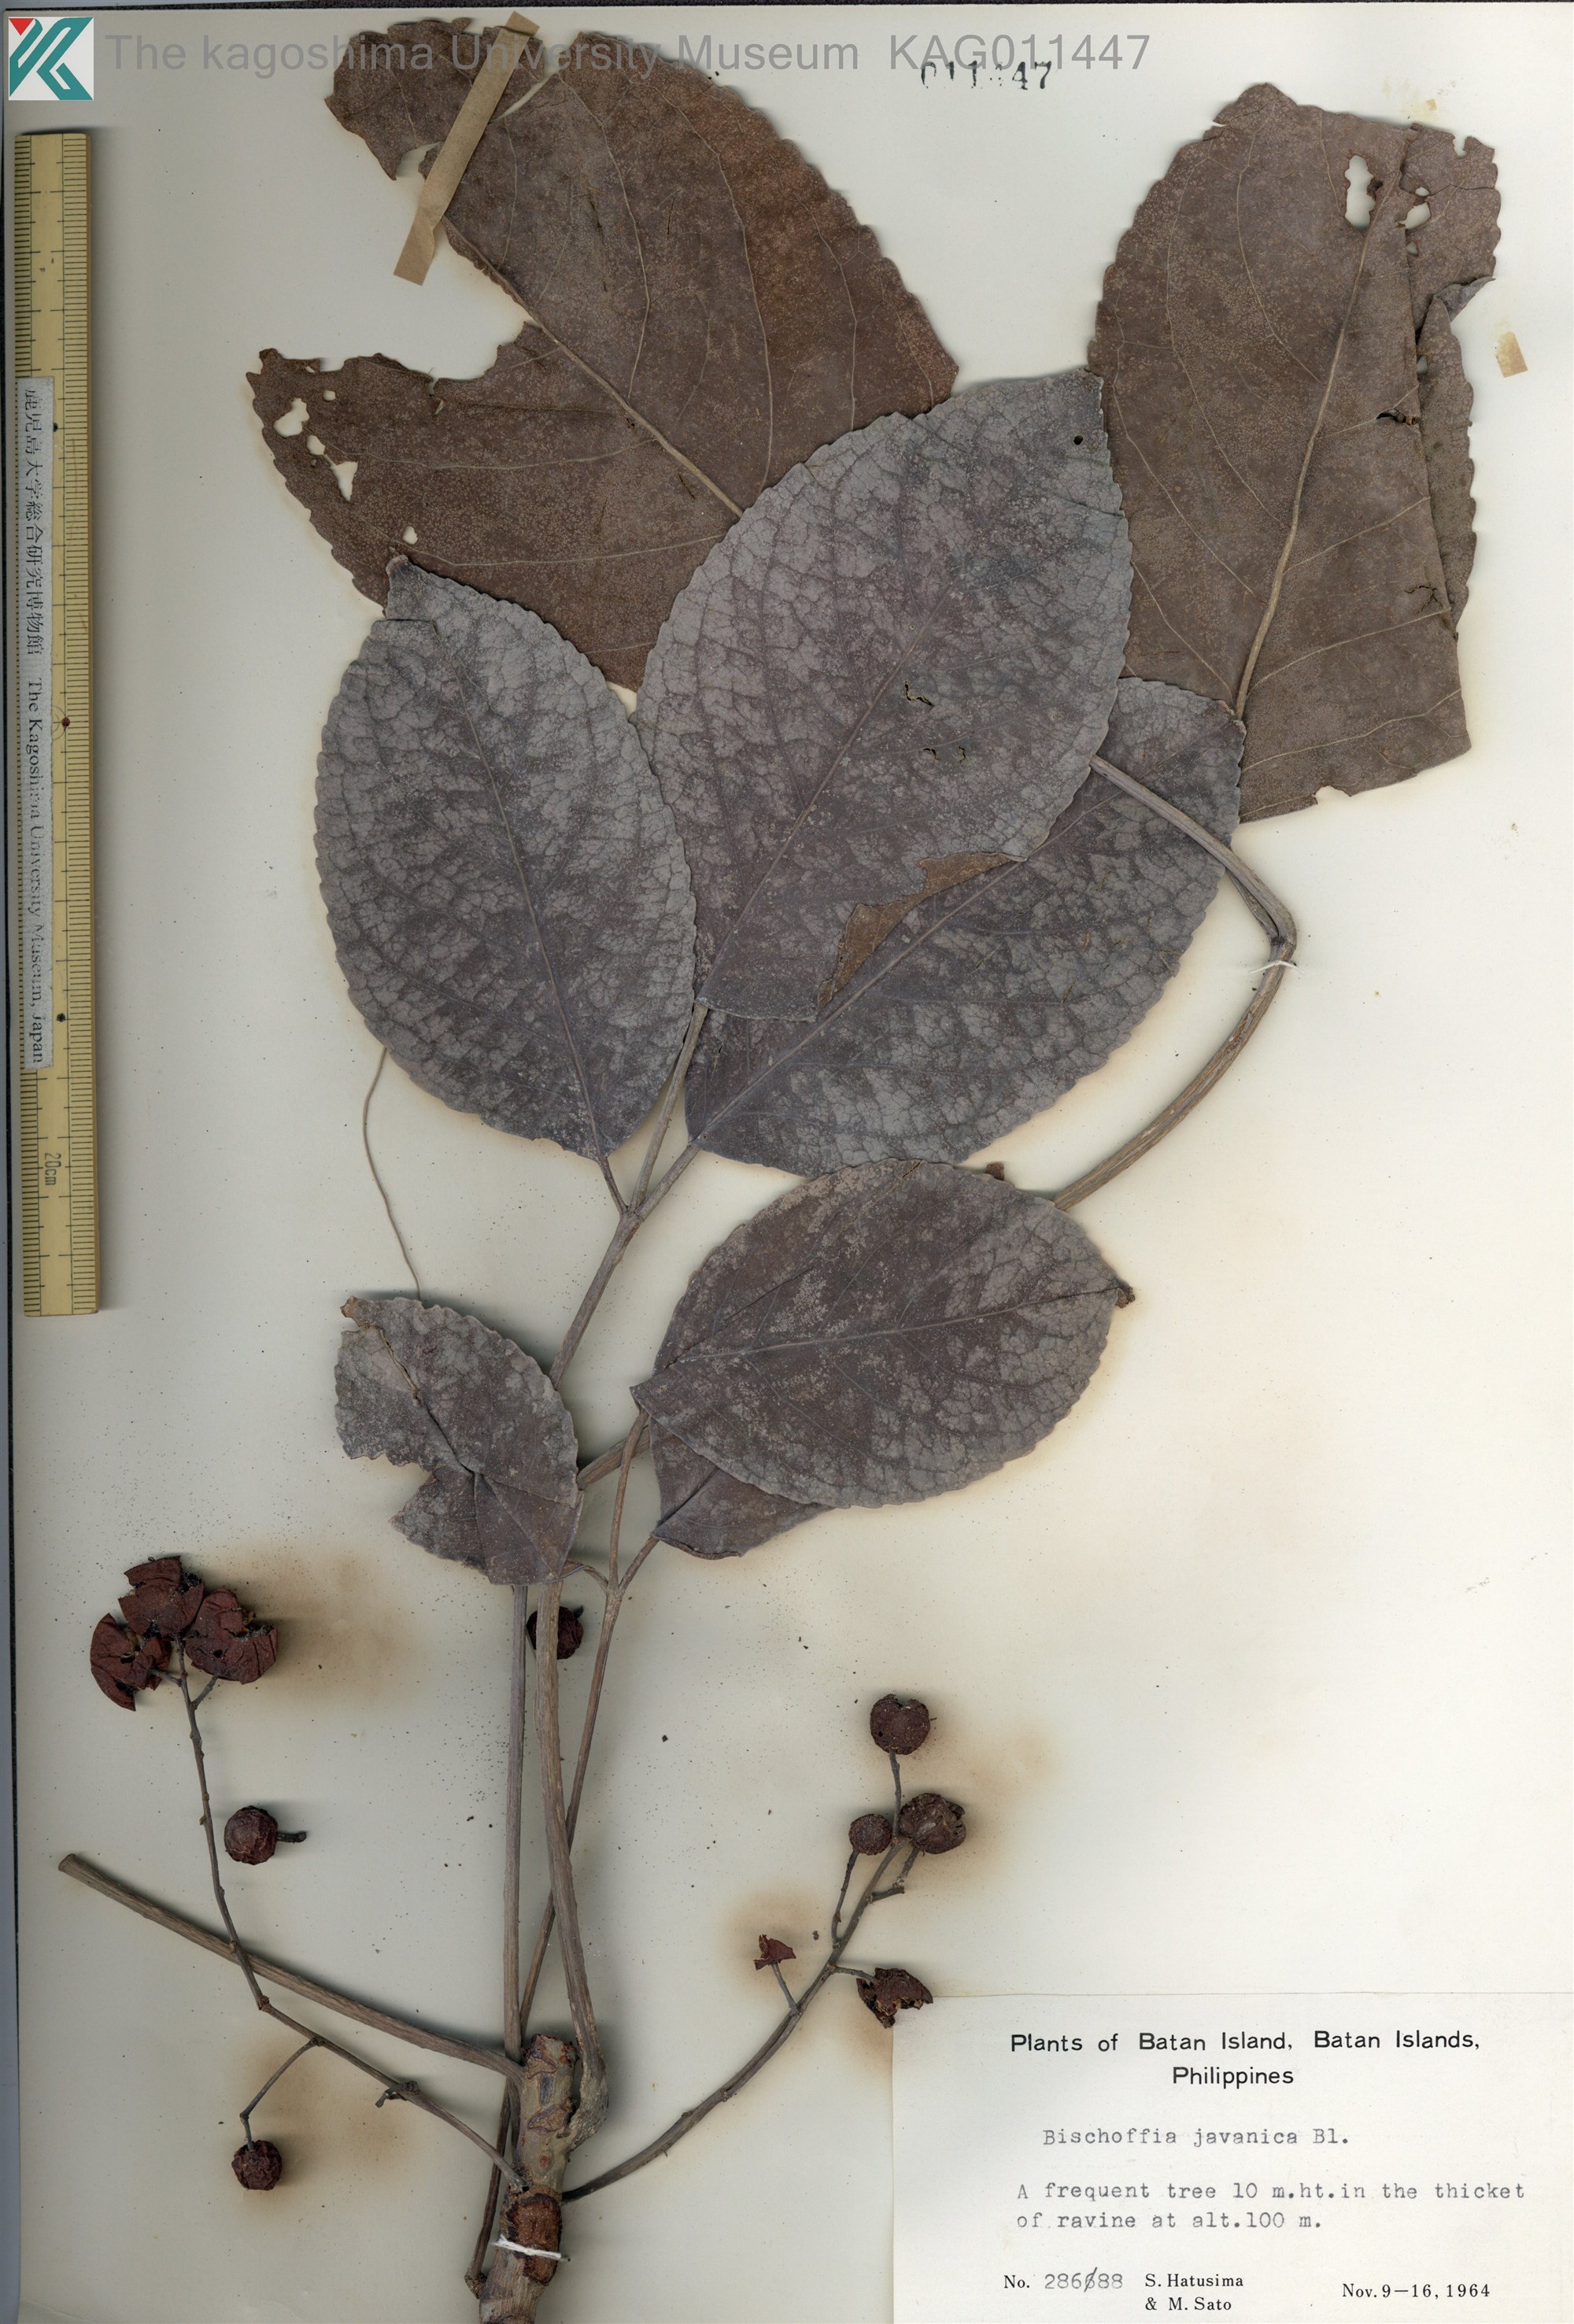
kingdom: Plantae
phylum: Tracheophyta
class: Magnoliopsida
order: Malpighiales
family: Phyllanthaceae
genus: Bischofia
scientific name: Bischofia javanica
